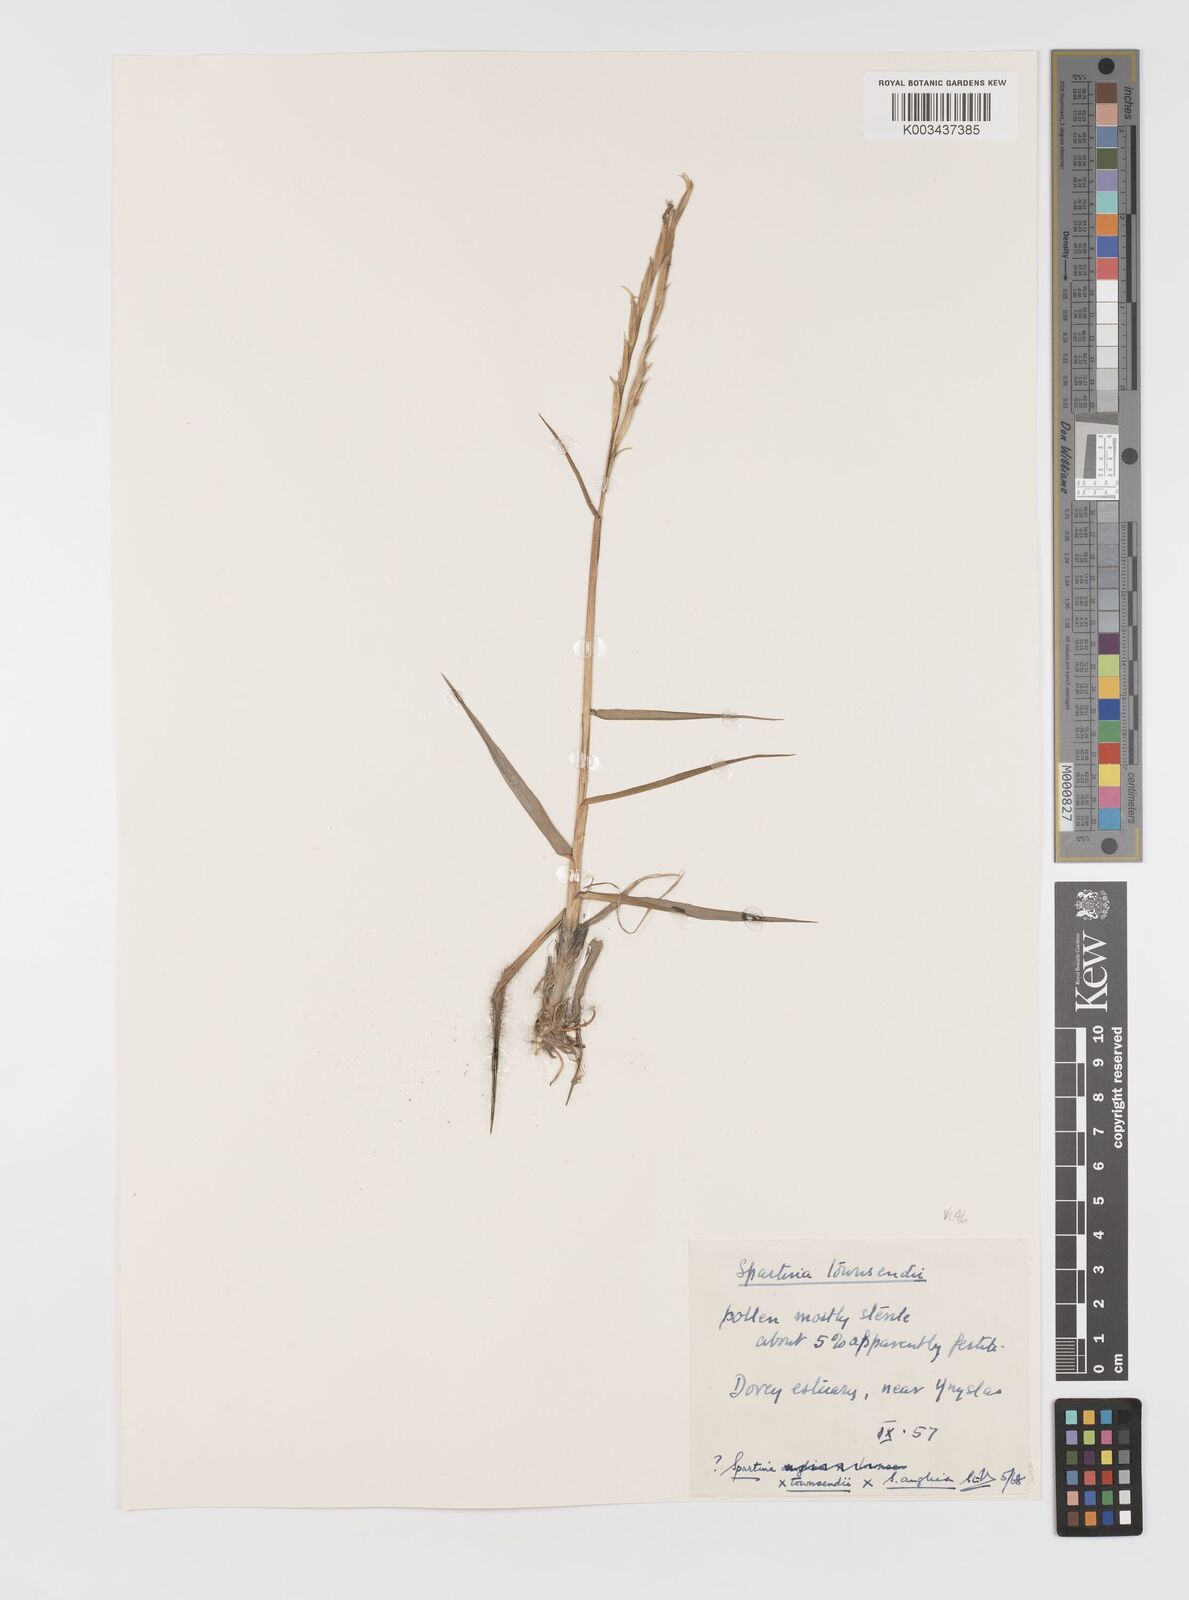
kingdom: Plantae
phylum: Tracheophyta
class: Liliopsida
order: Poales
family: Poaceae
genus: Sporobolus
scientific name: Sporobolus townsendii
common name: Townsend's cordgrass
